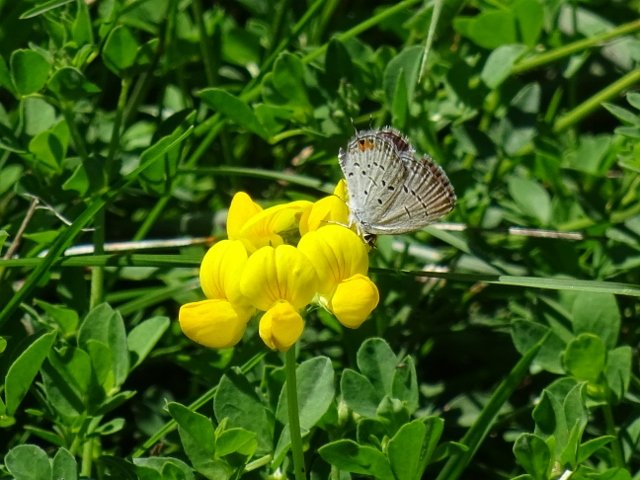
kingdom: Animalia
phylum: Arthropoda
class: Insecta
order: Lepidoptera
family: Lycaenidae
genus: Elkalyce
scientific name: Elkalyce comyntas
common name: Eastern Tailed-Blue
